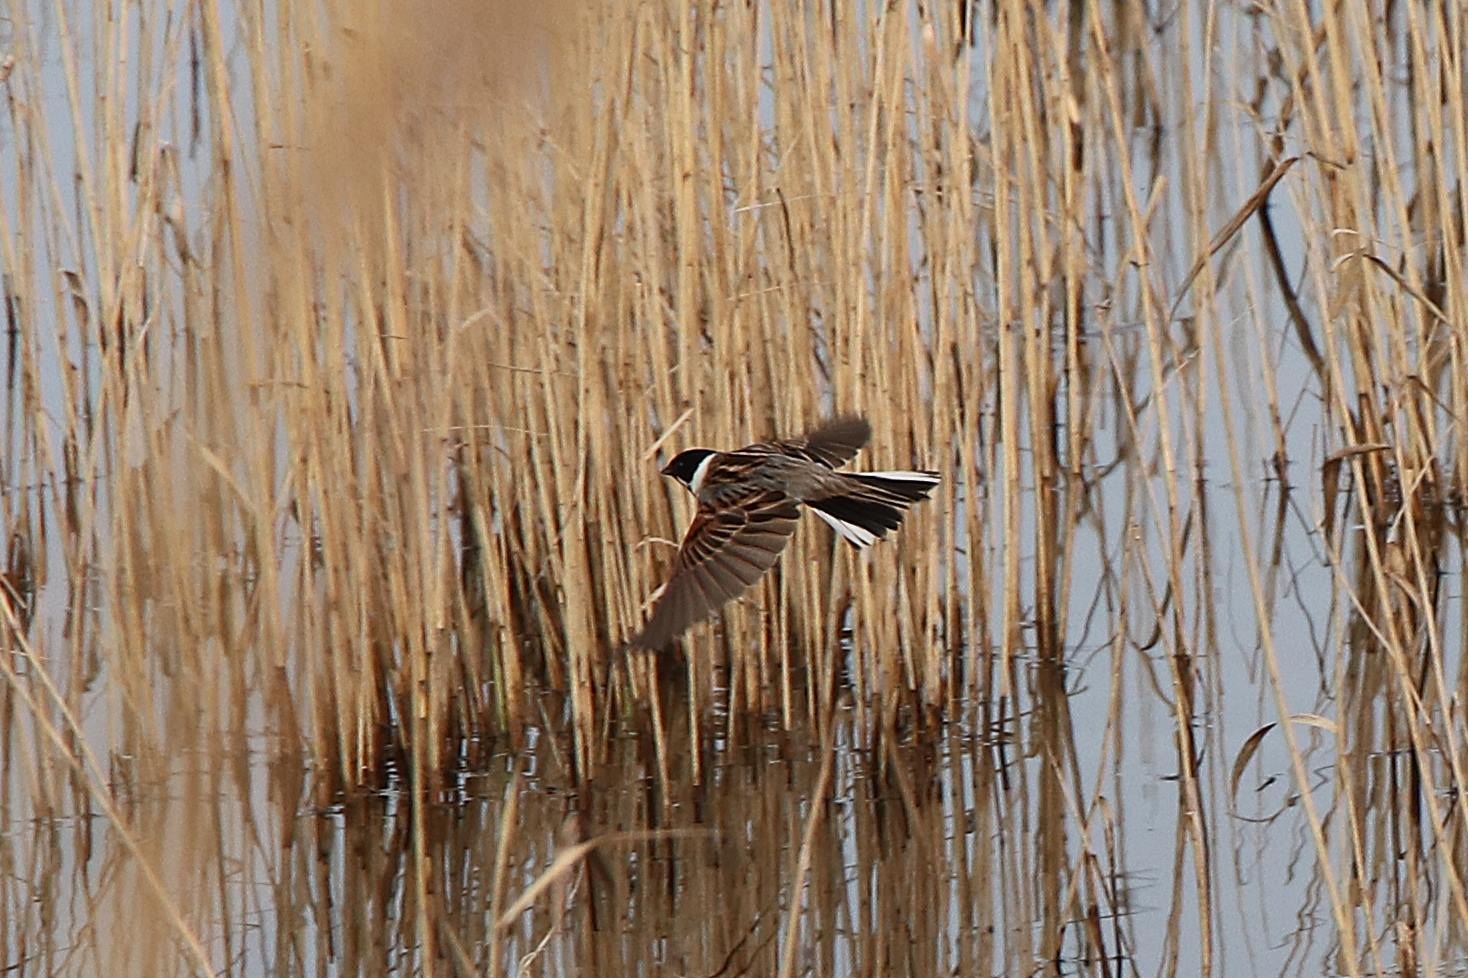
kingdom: Animalia
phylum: Chordata
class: Aves
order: Passeriformes
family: Emberizidae
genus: Emberiza
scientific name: Emberiza schoeniclus
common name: Rørspurv
